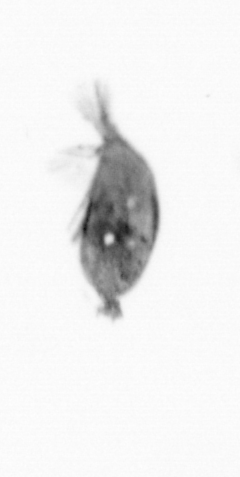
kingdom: Animalia
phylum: Arthropoda
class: Maxillopoda
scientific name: Maxillopoda
